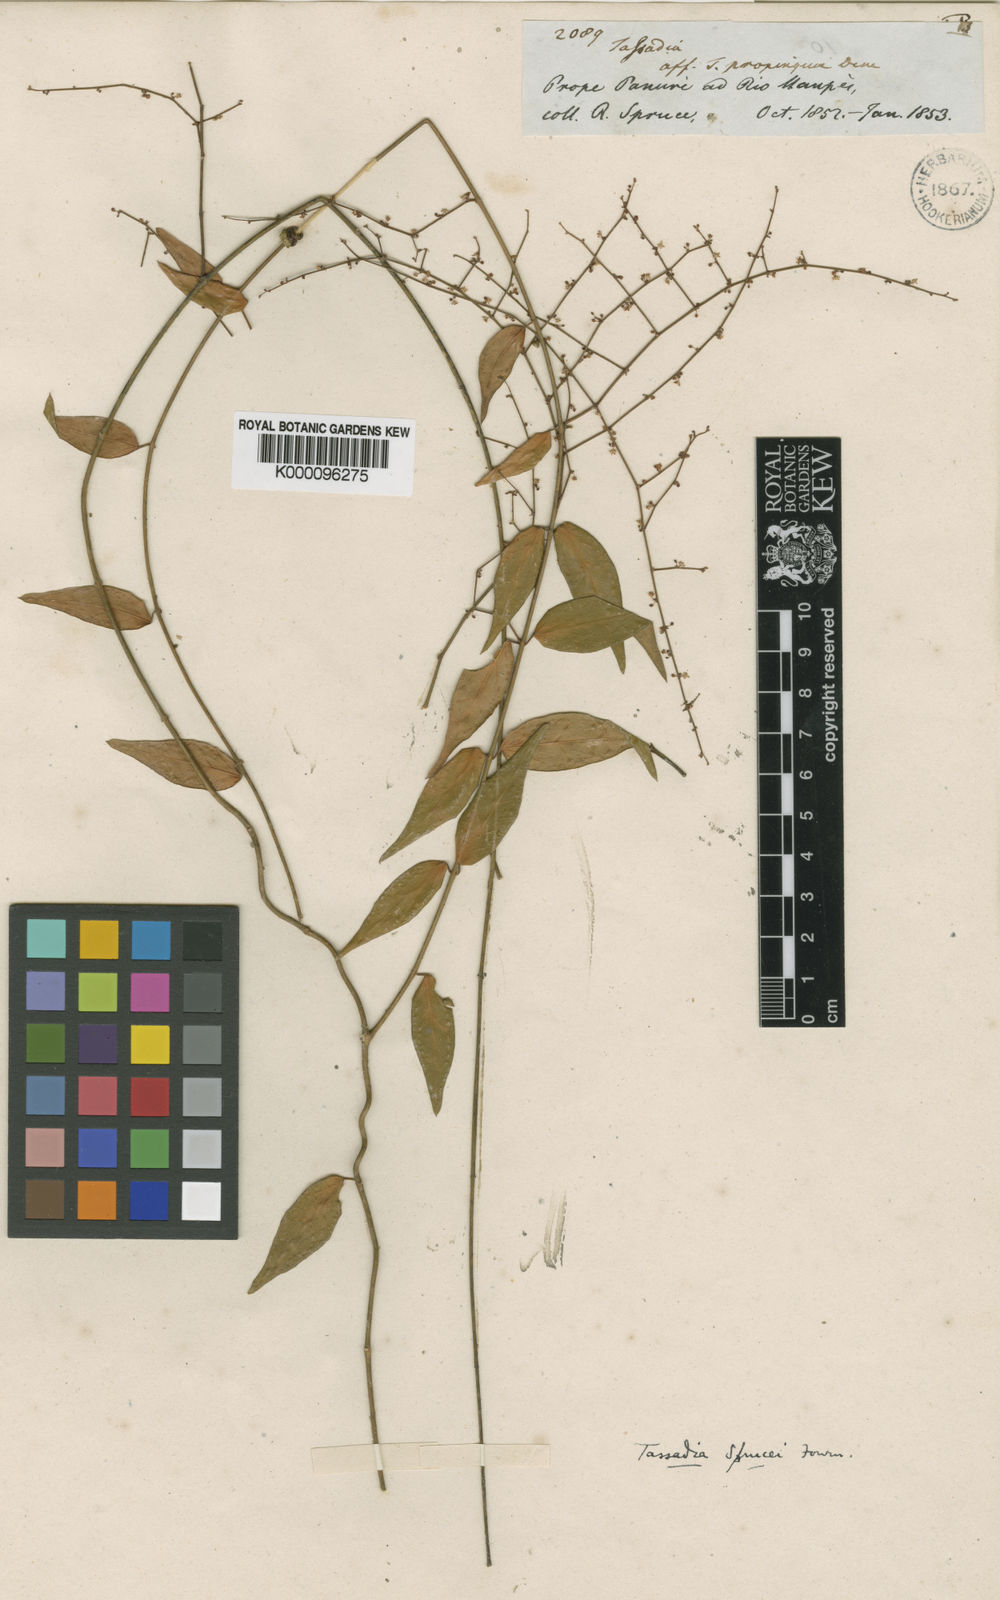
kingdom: Plantae
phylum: Tracheophyta
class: Magnoliopsida
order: Gentianales
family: Apocynaceae
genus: Tassadia
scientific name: Tassadia propinqua
